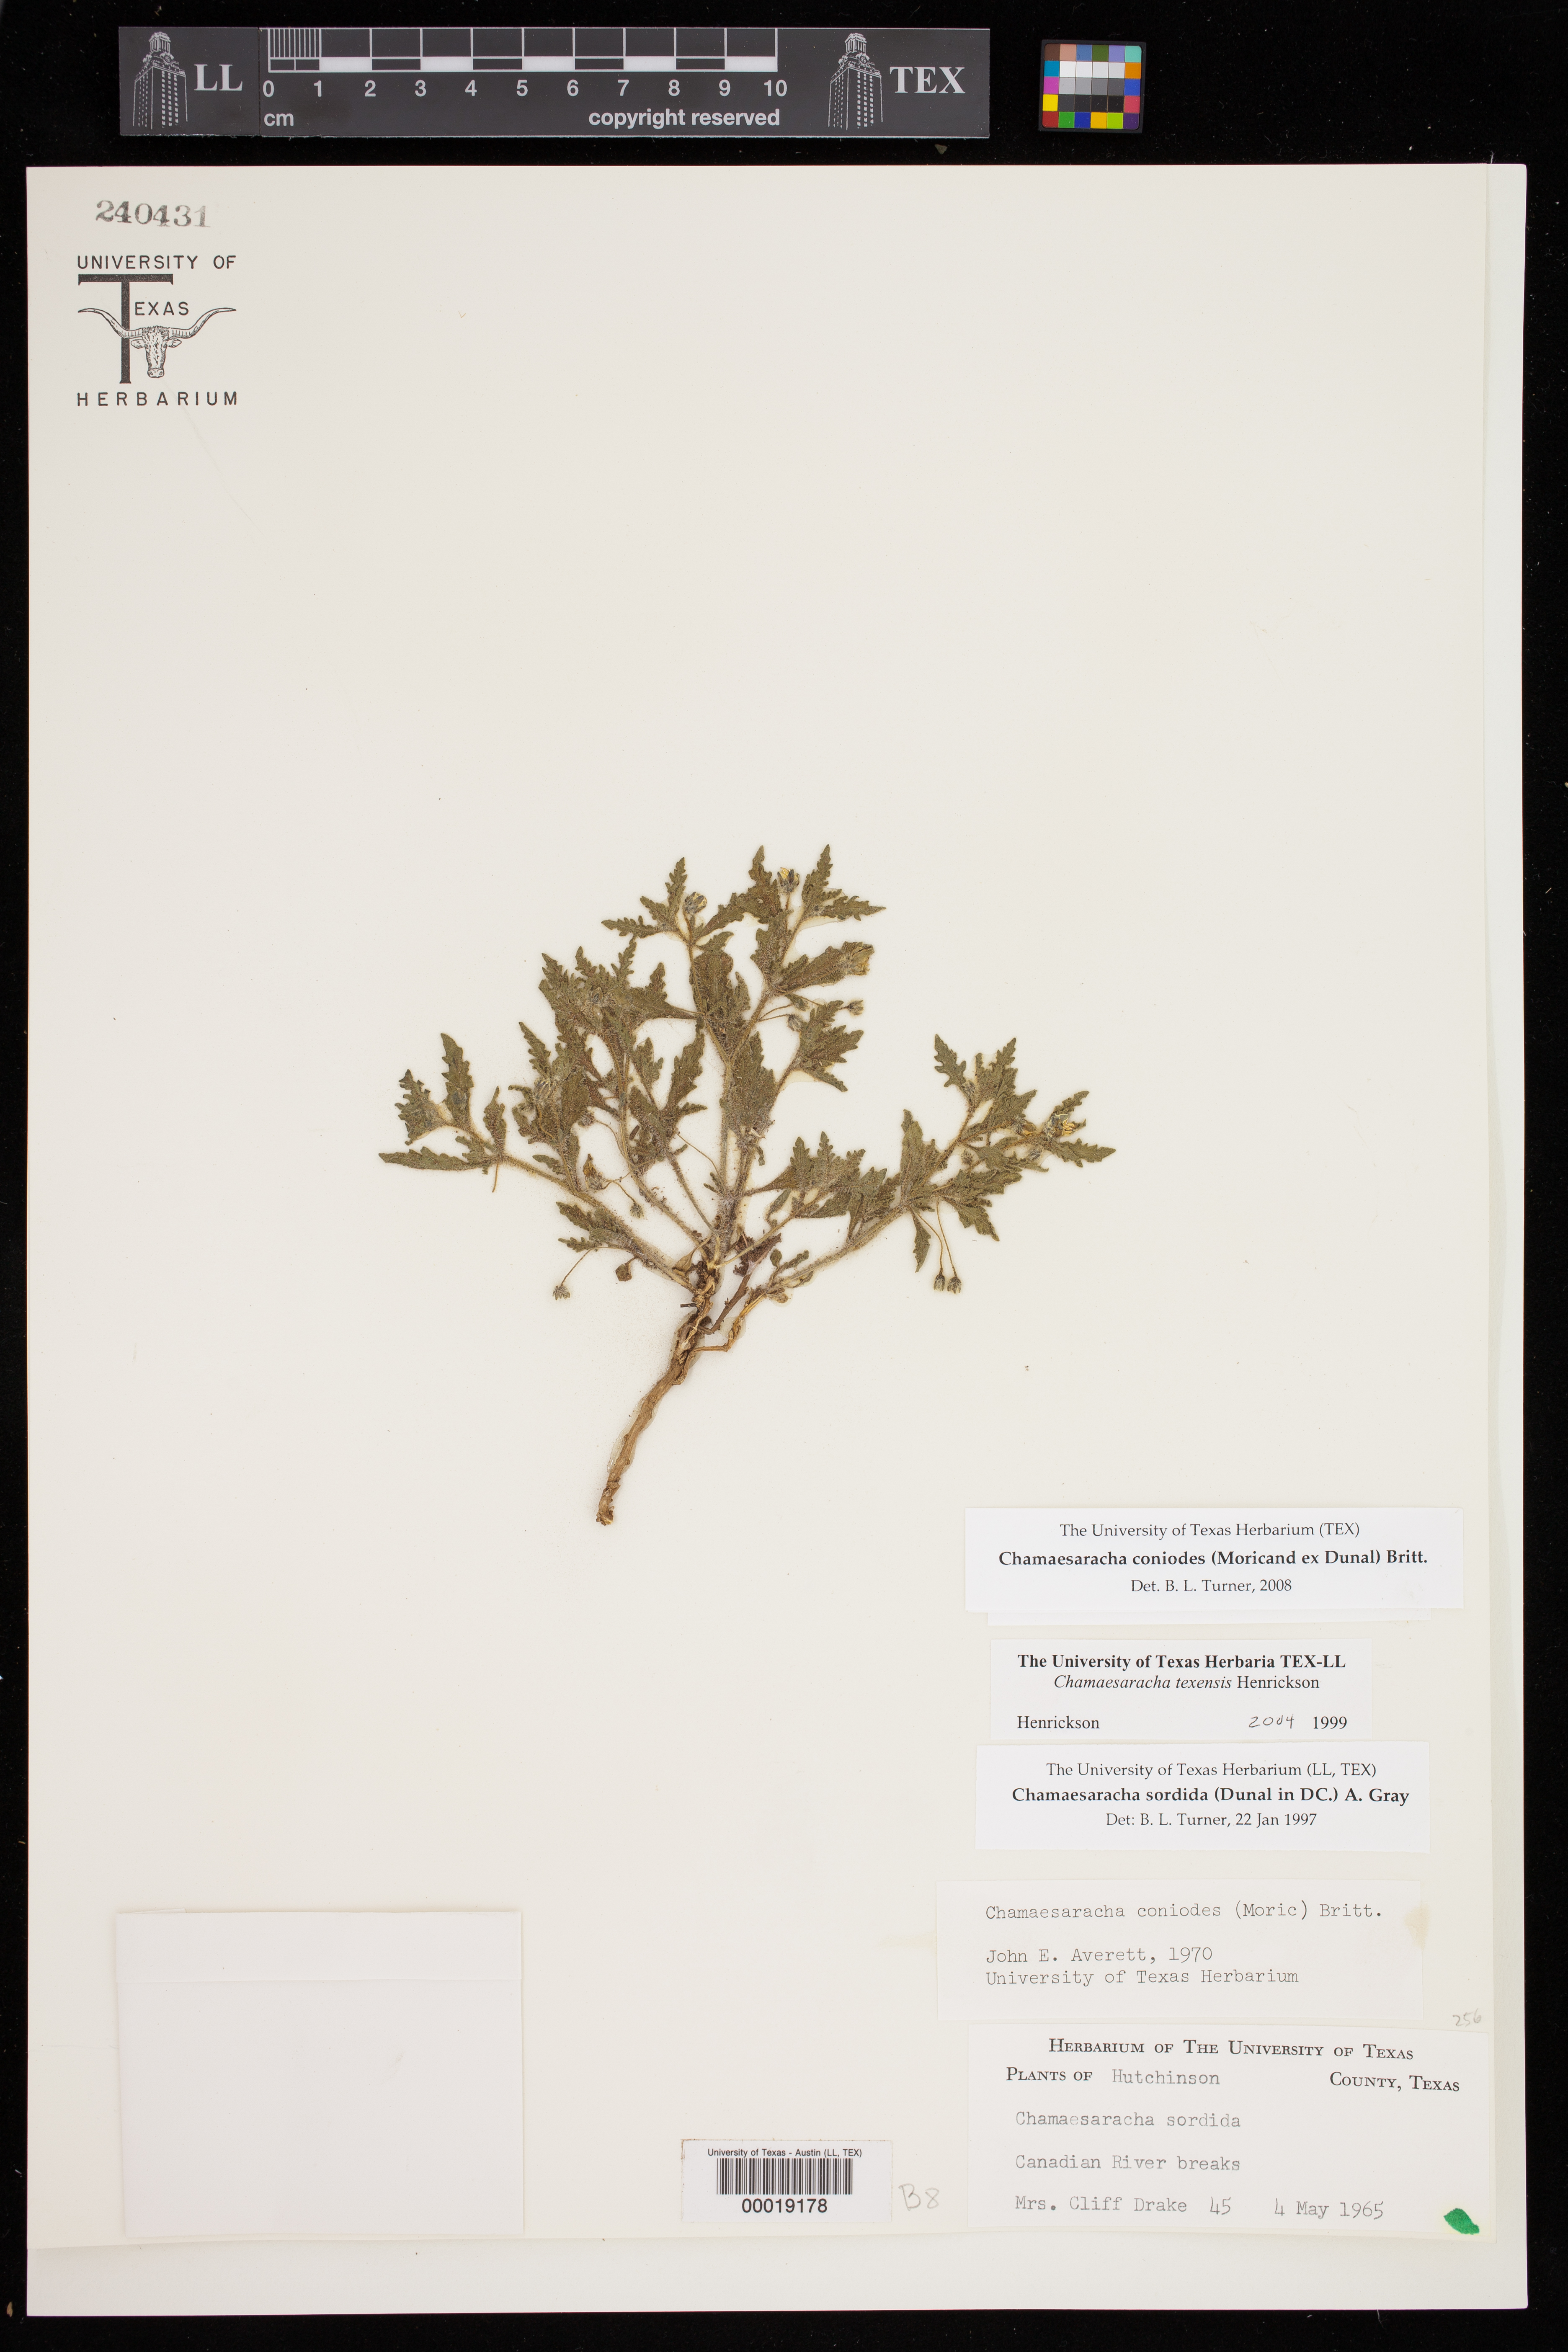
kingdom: Plantae
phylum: Tracheophyta
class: Magnoliopsida
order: Solanales
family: Solanaceae
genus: Chamaesaracha
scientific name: Chamaesaracha texensis
